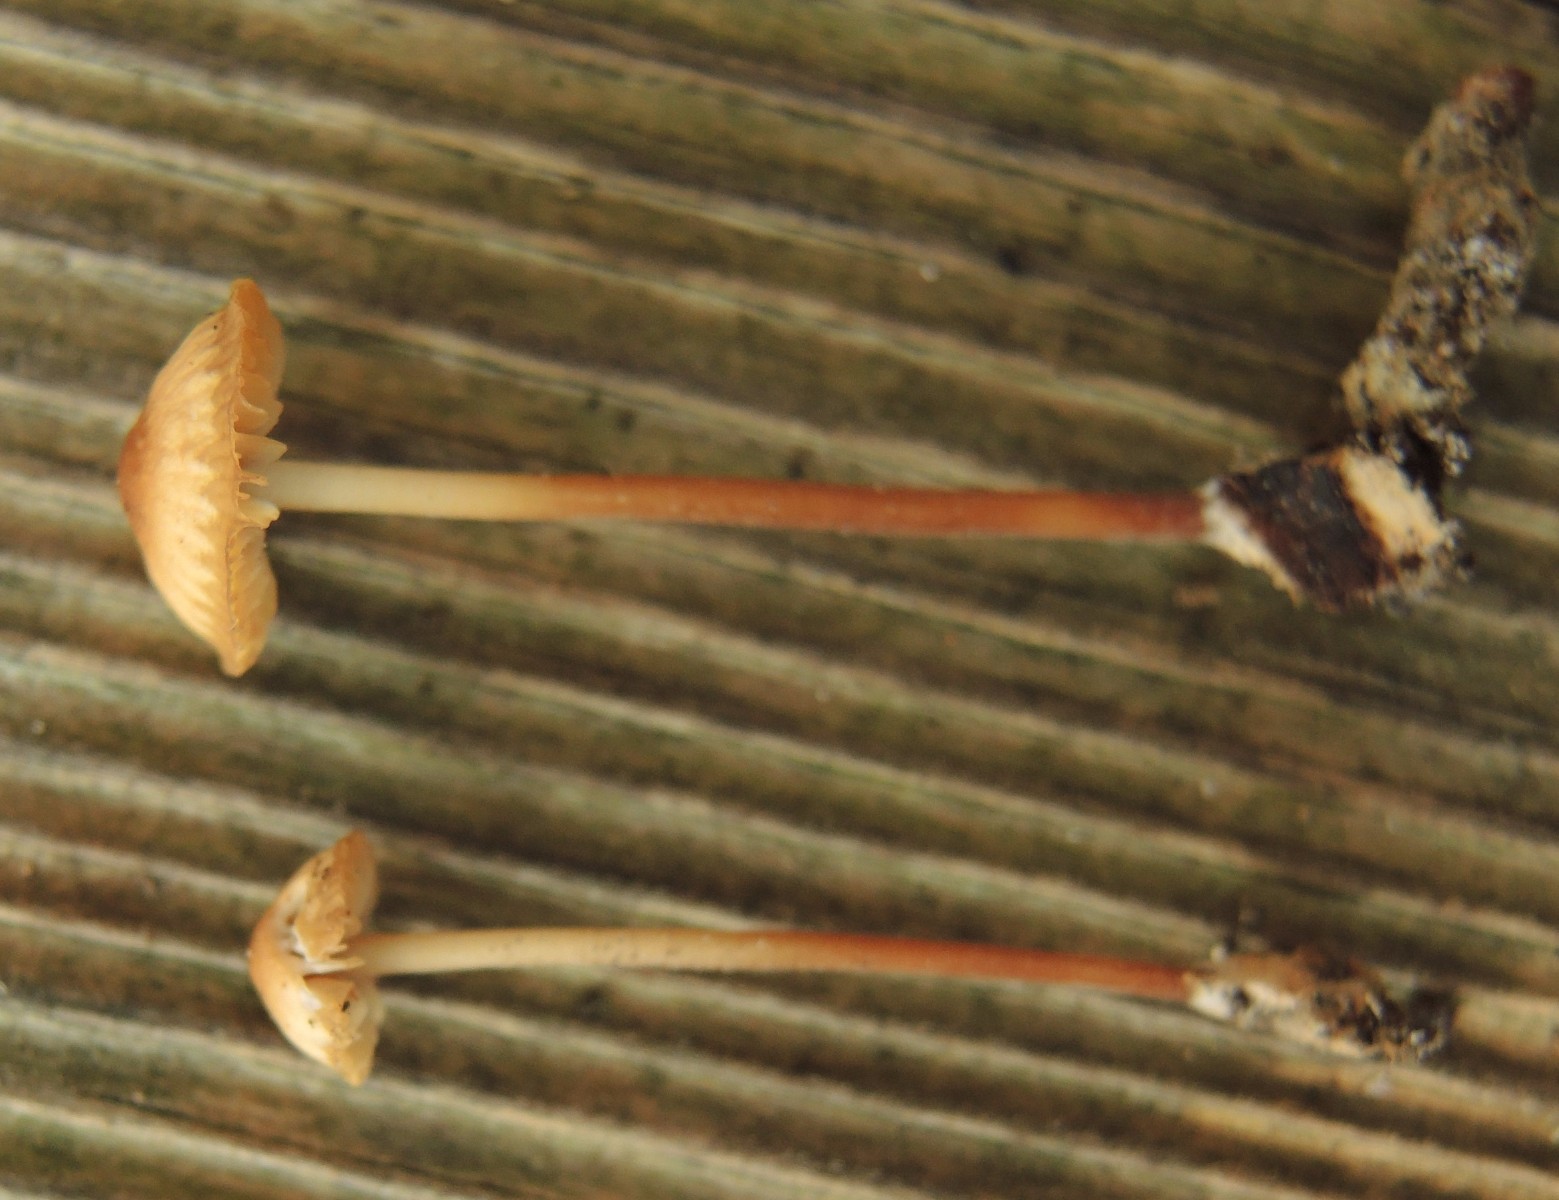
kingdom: Fungi
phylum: Basidiomycota
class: Agaricomycetes
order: Agaricales
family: Marasmiaceae
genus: Marasmius
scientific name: Marasmius torquescens
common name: filtfodet bruskhat
